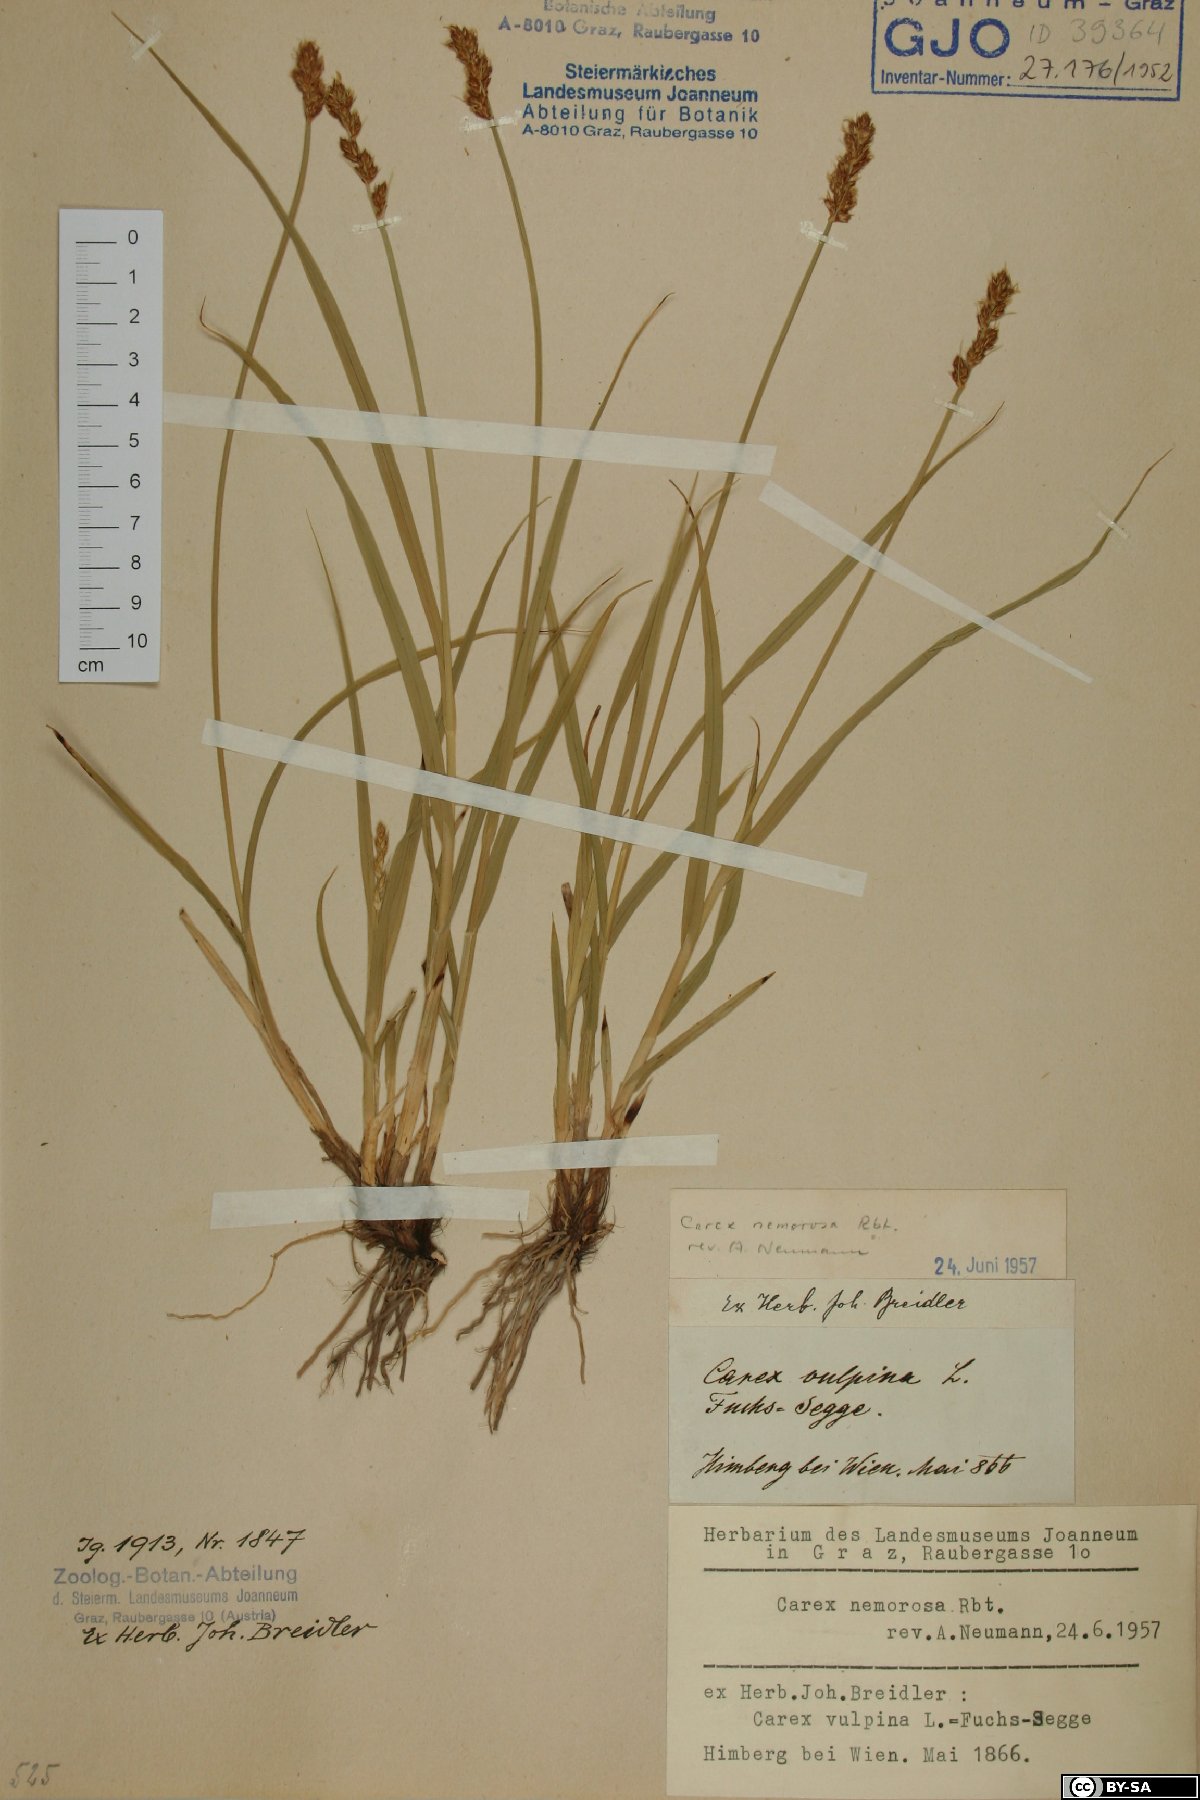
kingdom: Plantae
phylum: Tracheophyta
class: Liliopsida
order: Poales
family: Cyperaceae
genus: Carex
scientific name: Carex otrubae
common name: False fox-sedge
